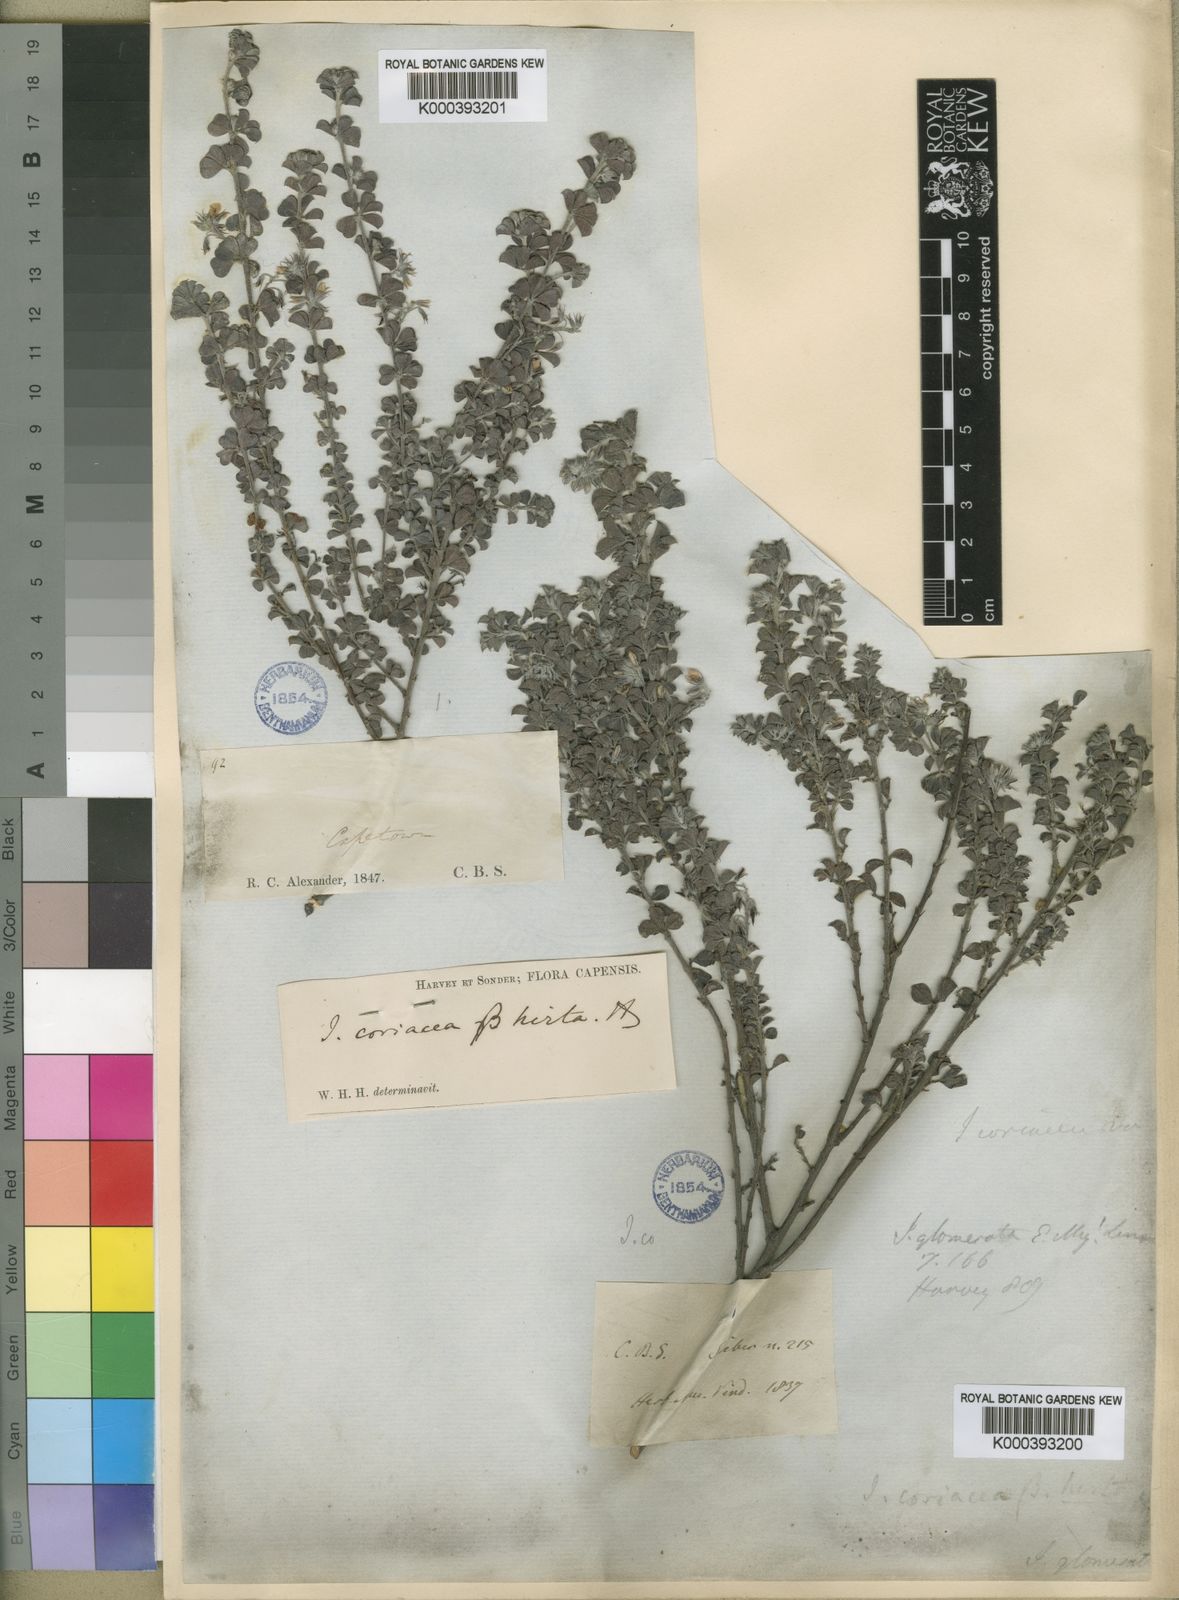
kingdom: Plantae
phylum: Tracheophyta
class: Magnoliopsida
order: Fabales
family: Fabaceae
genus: Indigofera
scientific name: Indigofera candolleana
